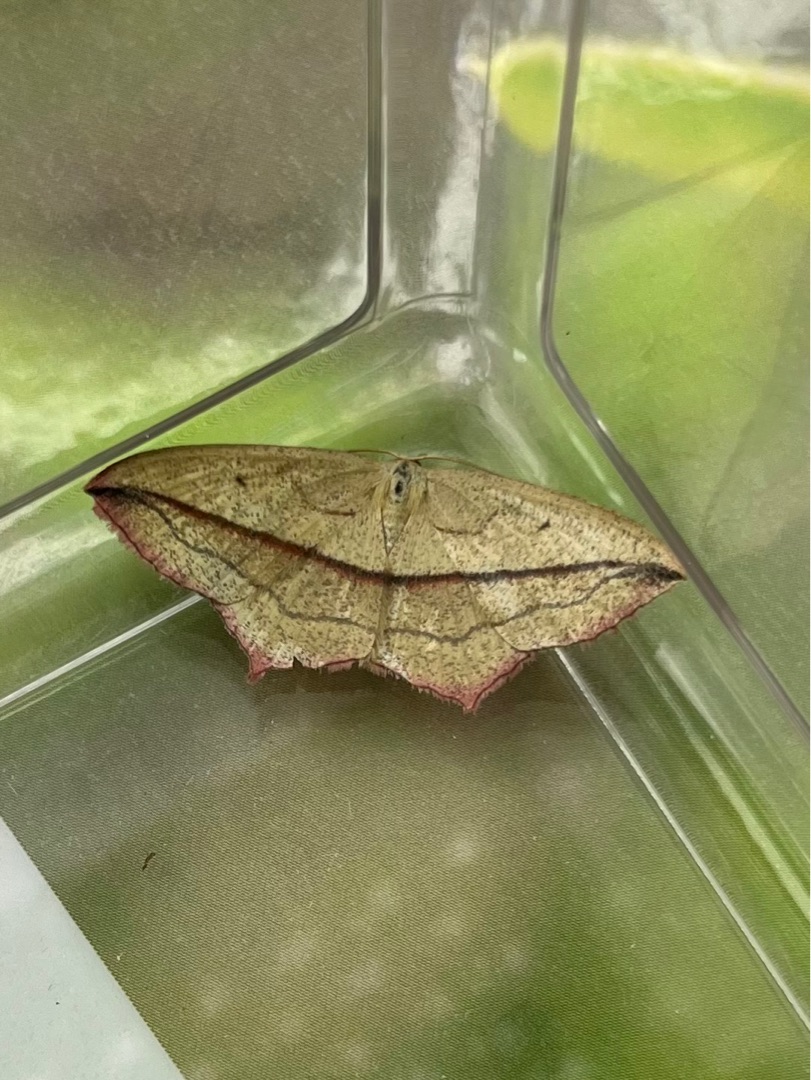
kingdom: Animalia
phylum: Arthropoda
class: Insecta
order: Lepidoptera
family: Geometridae
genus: Timandra
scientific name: Timandra comae
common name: Gul syremåler
